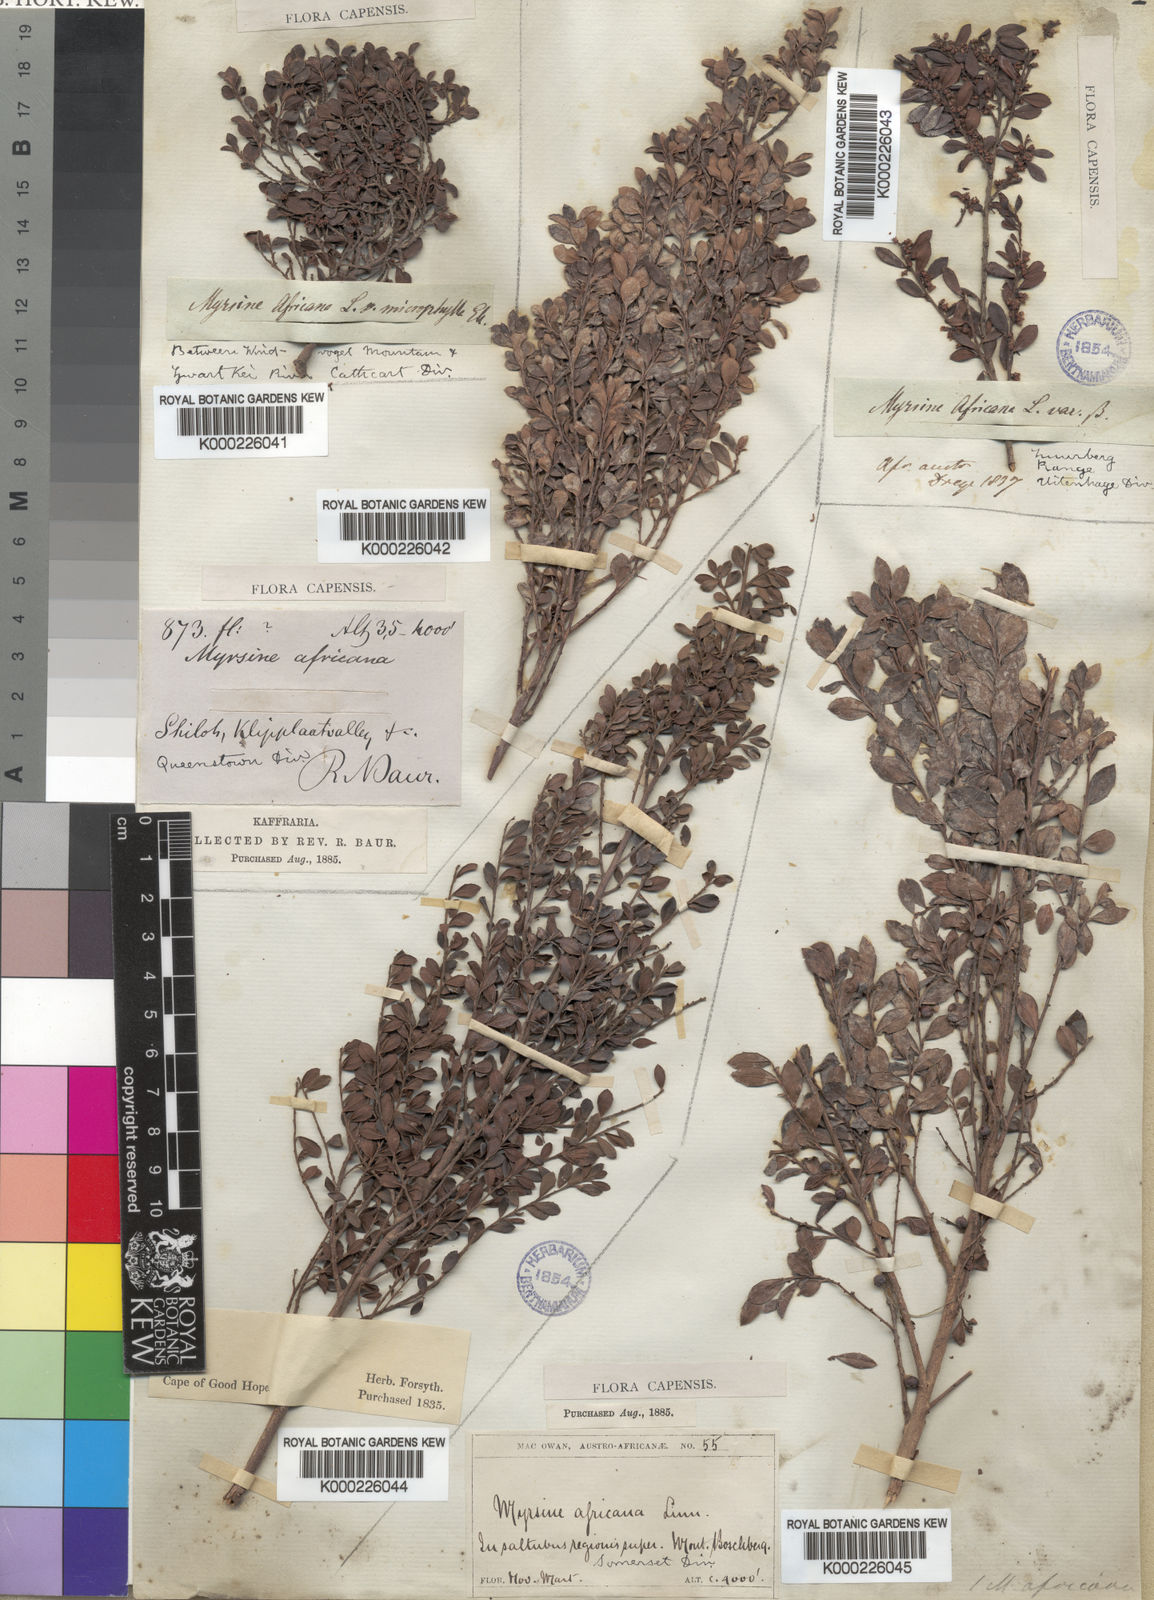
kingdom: Plantae
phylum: Tracheophyta
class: Magnoliopsida
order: Ericales
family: Primulaceae
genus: Myrsine
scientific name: Myrsine africana
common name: African-boxwood
